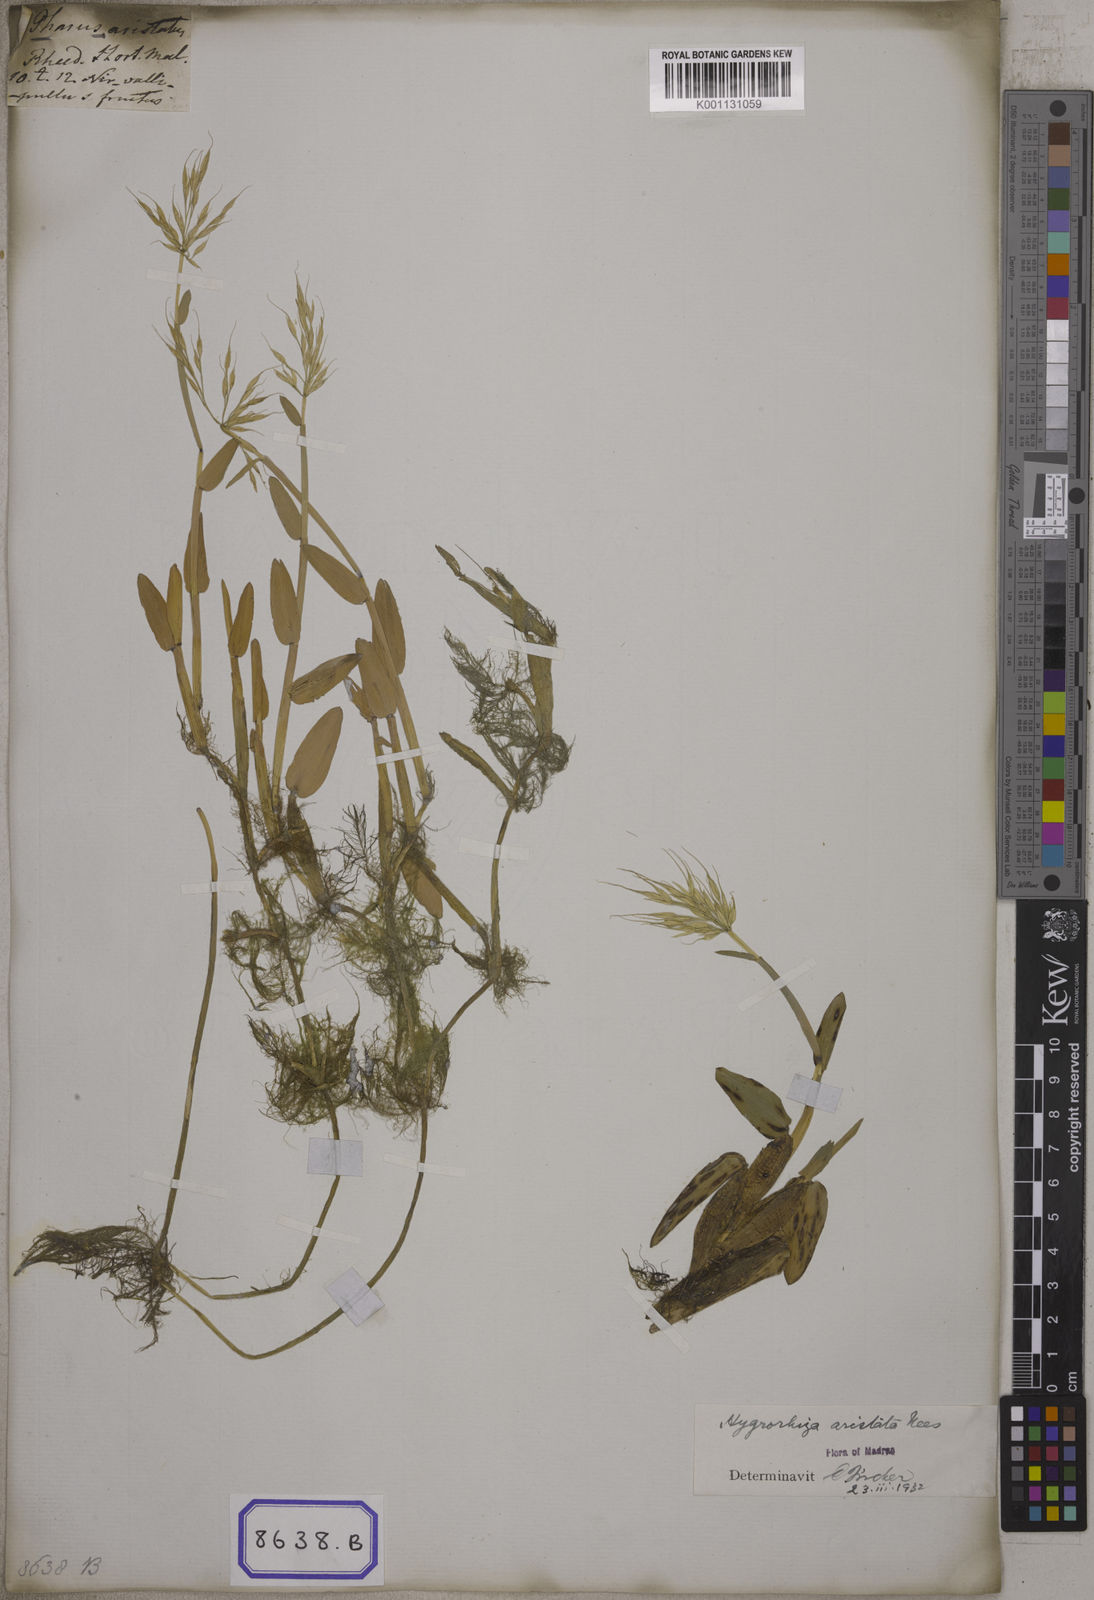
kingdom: Plantae
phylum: Tracheophyta
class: Liliopsida
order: Poales
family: Poaceae
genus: Hygroryza
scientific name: Hygroryza
